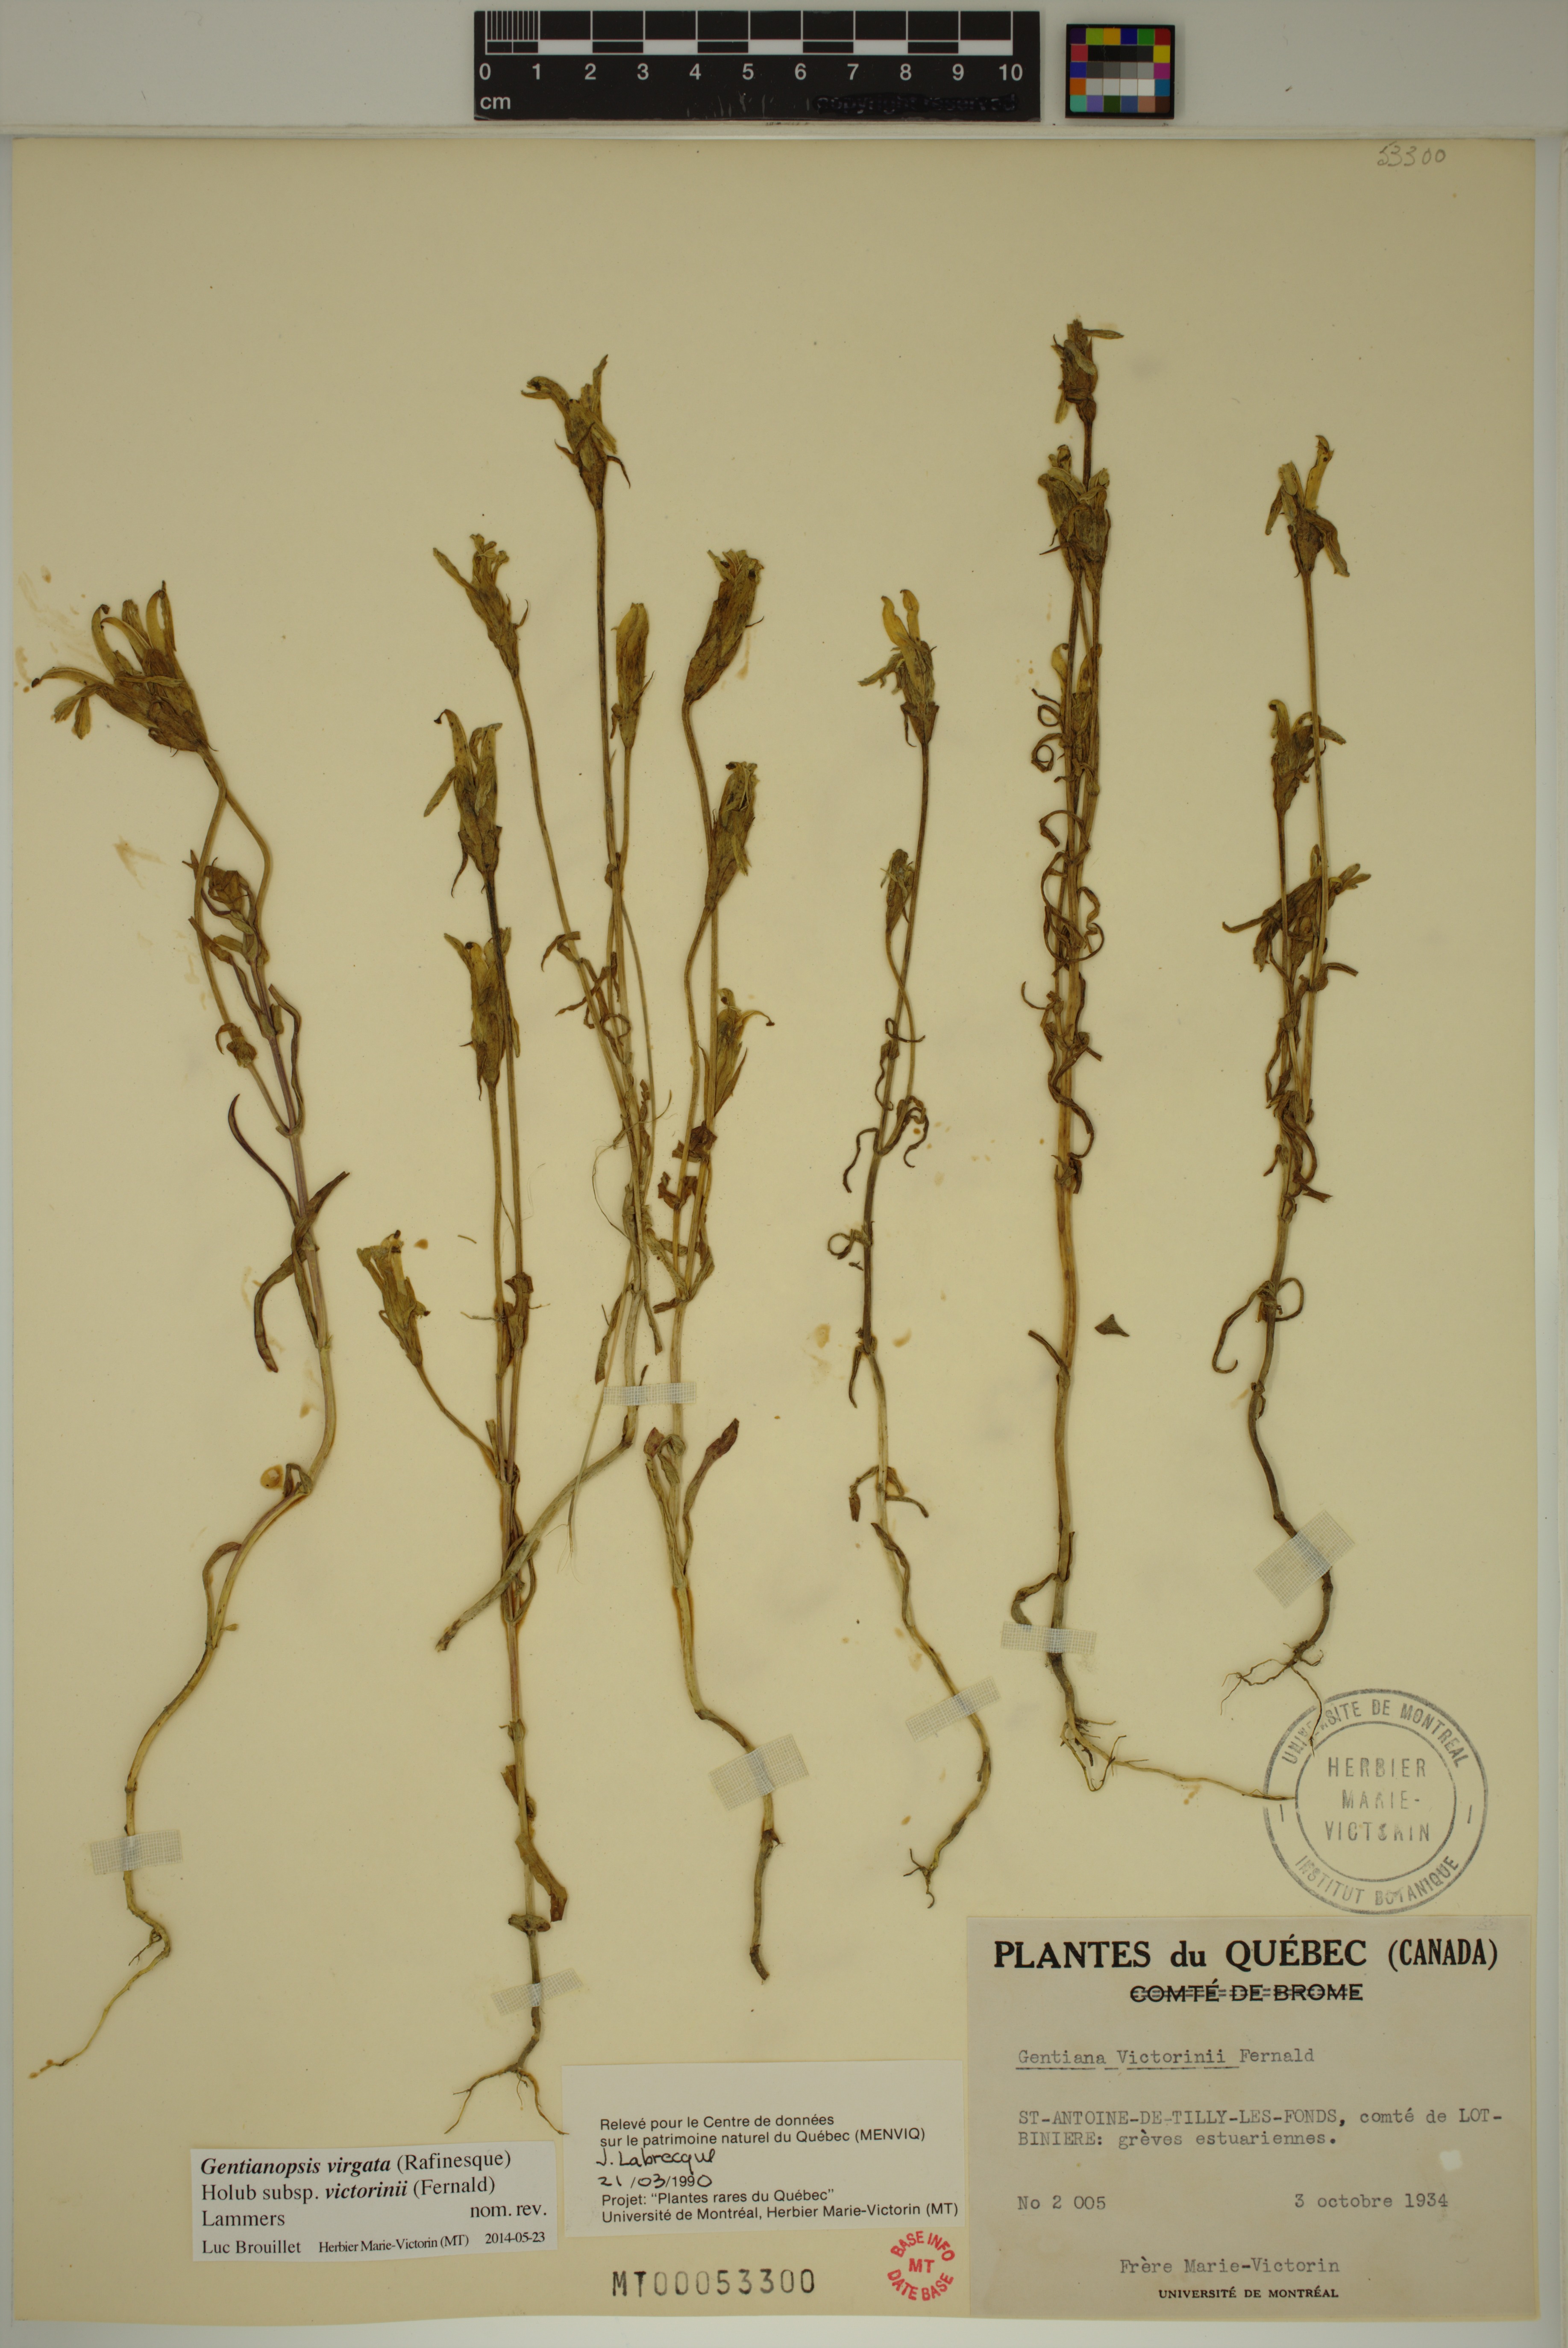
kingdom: Plantae
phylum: Tracheophyta
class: Magnoliopsida
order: Gentianales
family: Gentianaceae
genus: Gentianopsis
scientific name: Gentianopsis victorinii
